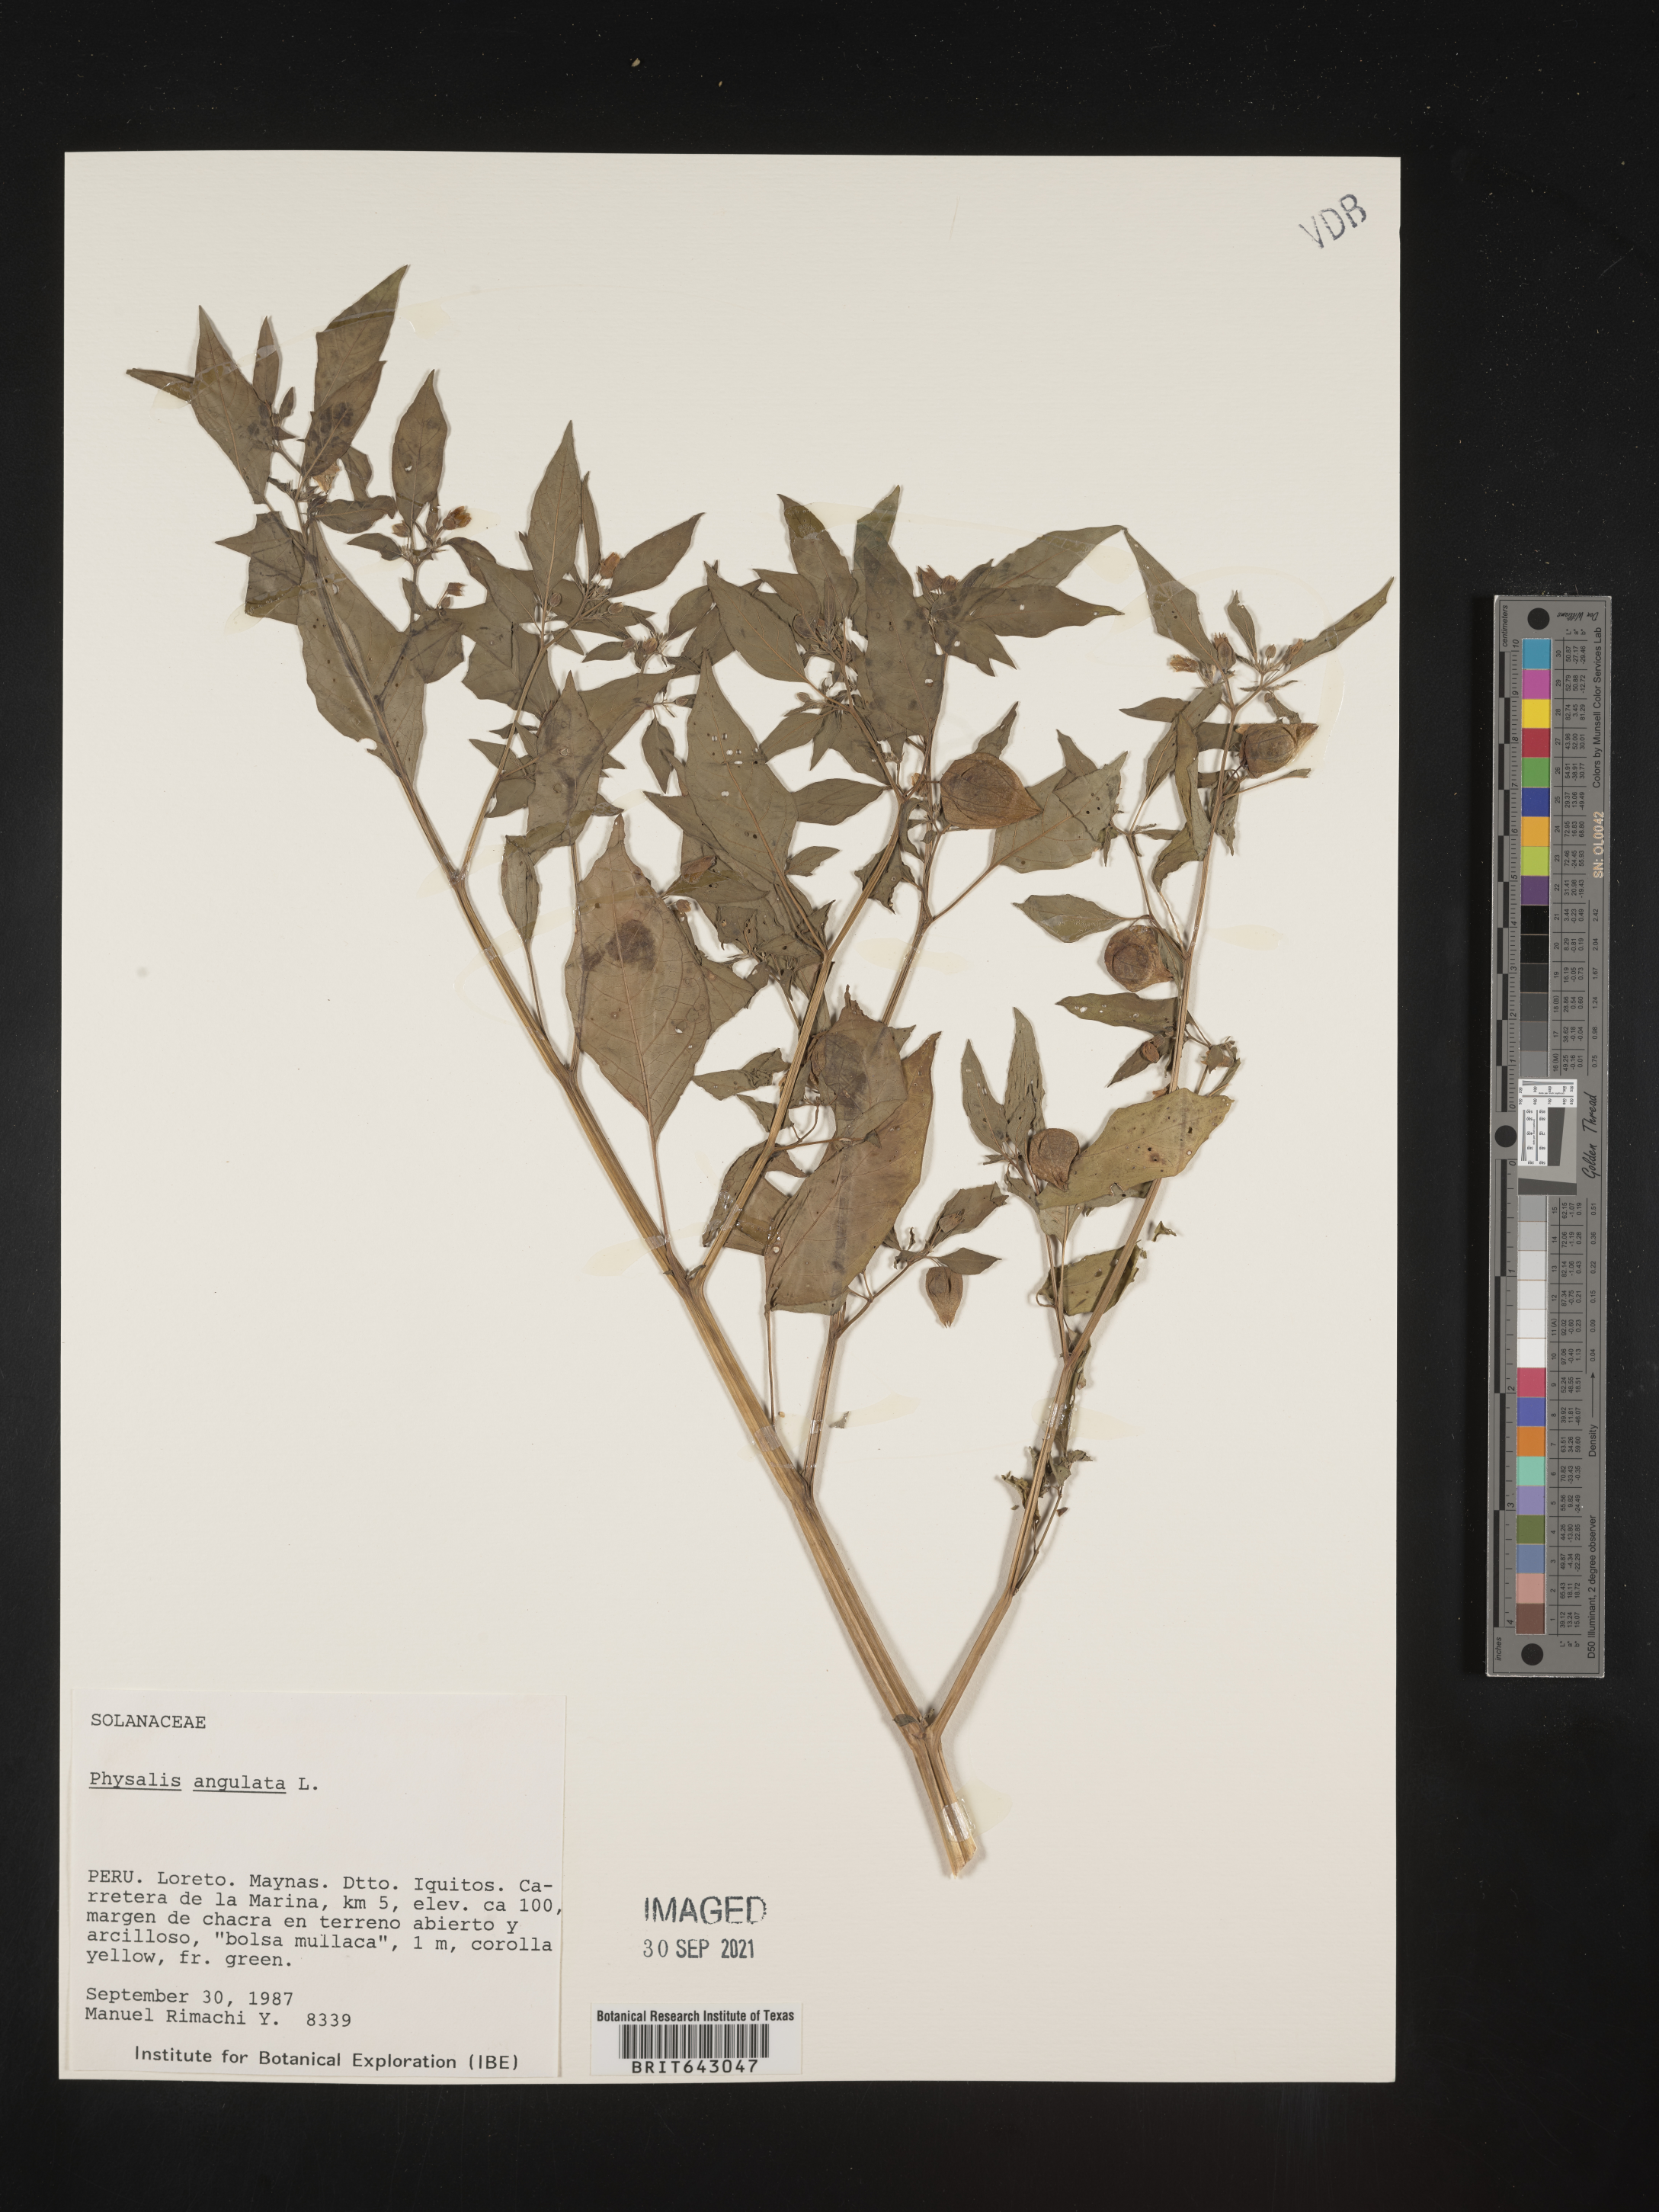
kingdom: Plantae
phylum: Tracheophyta
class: Magnoliopsida
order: Solanales
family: Solanaceae
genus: Physalis
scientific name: Physalis
